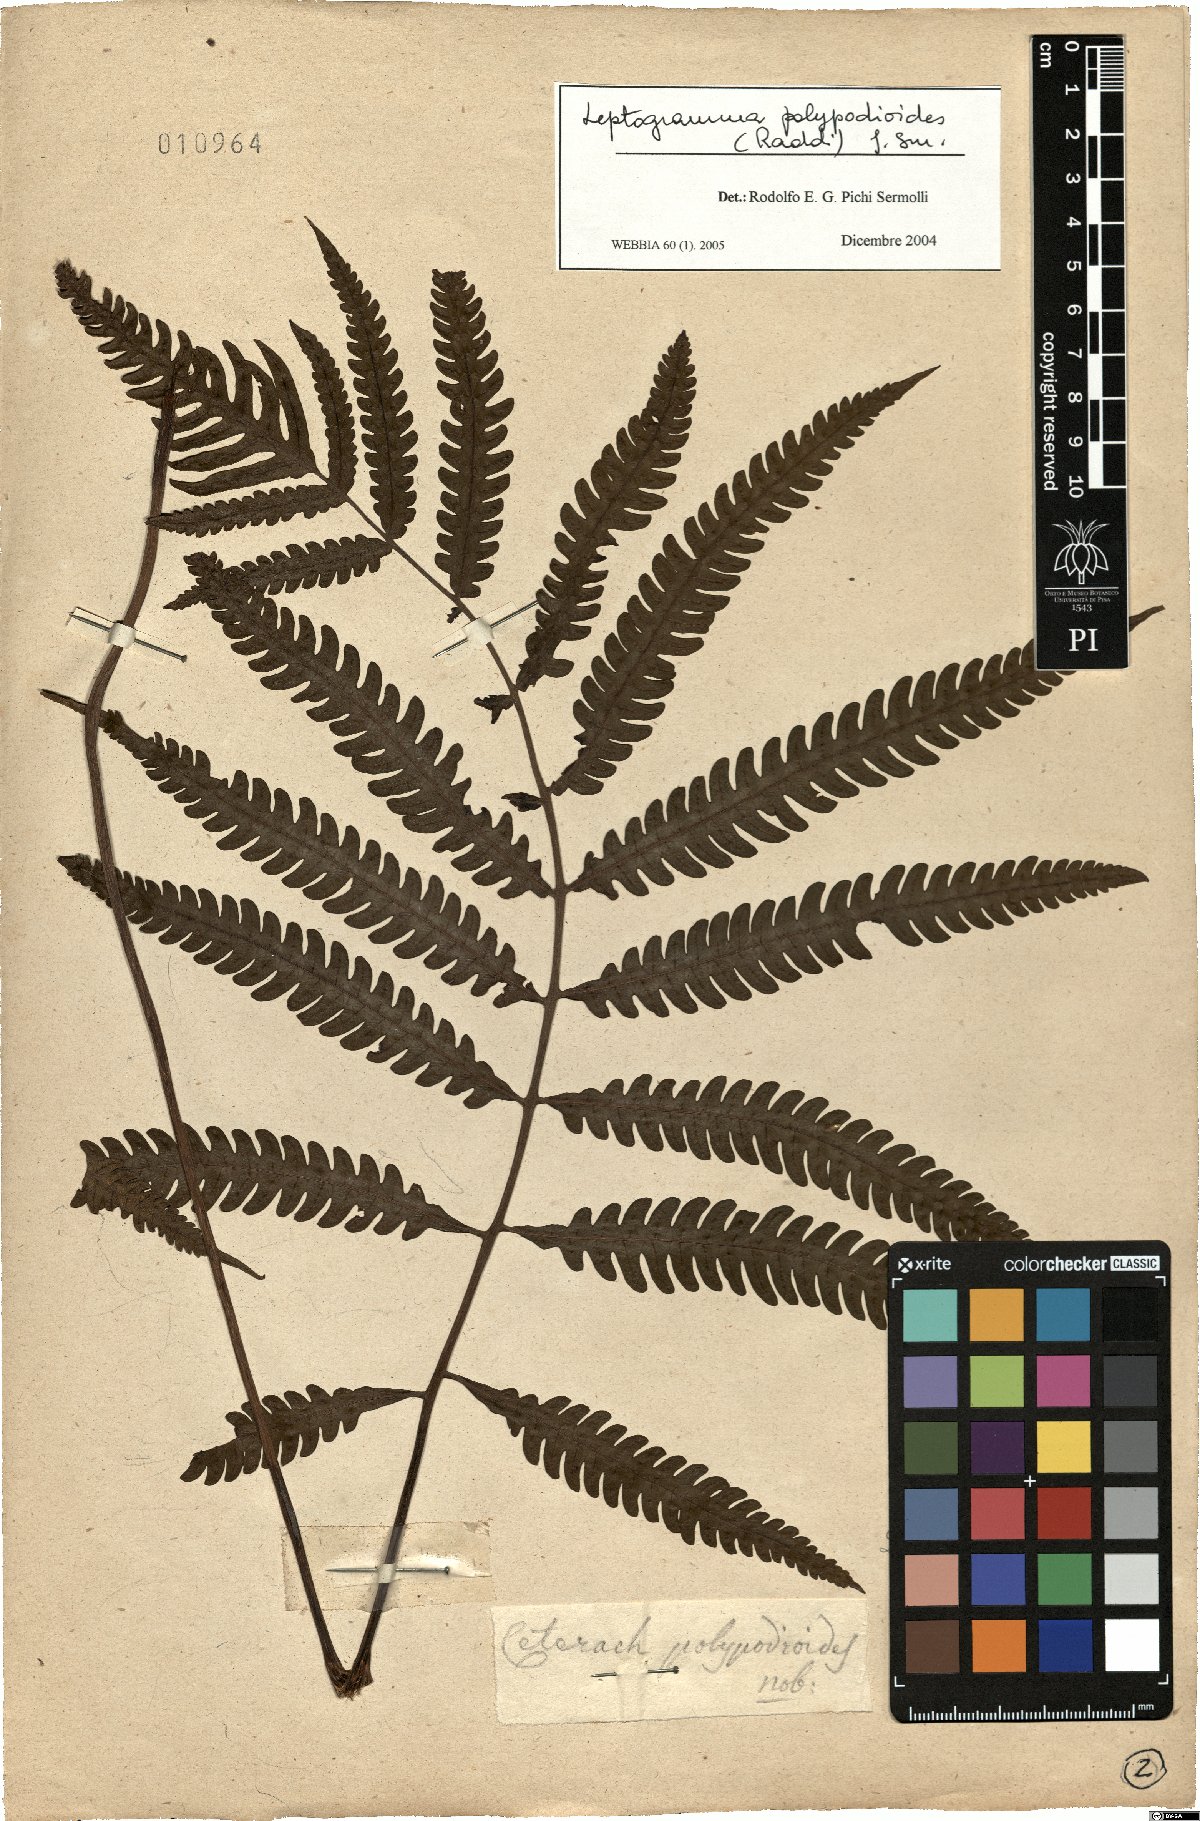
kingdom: Plantae
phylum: Tracheophyta
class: Polypodiopsida
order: Polypodiales
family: Thelypteridaceae
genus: Steiropteris
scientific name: Steiropteris polypodioides
